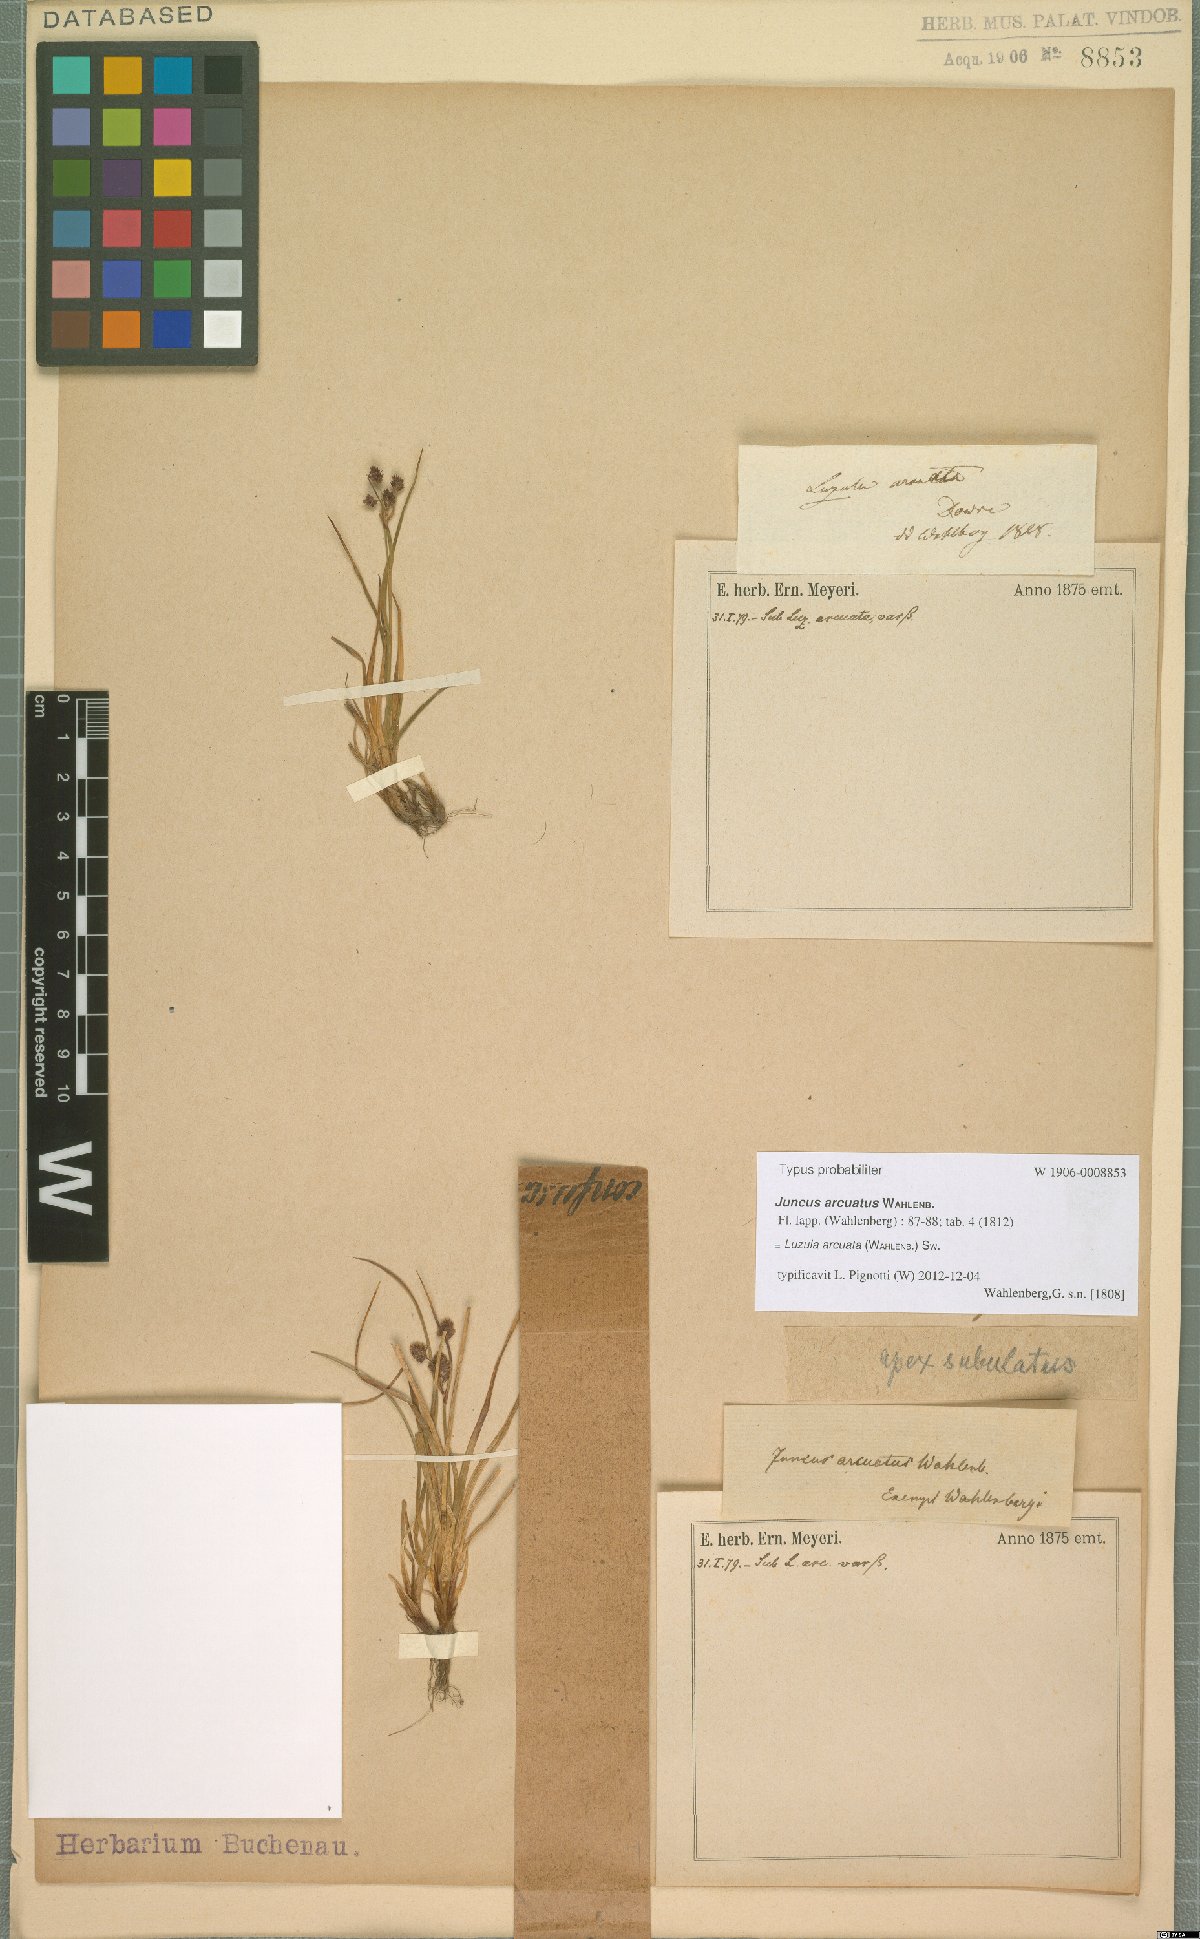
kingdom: Plantae
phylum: Tracheophyta
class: Liliopsida
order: Poales
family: Juncaceae
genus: Luzula
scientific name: Luzula arcuata
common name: Curved wood-rush
